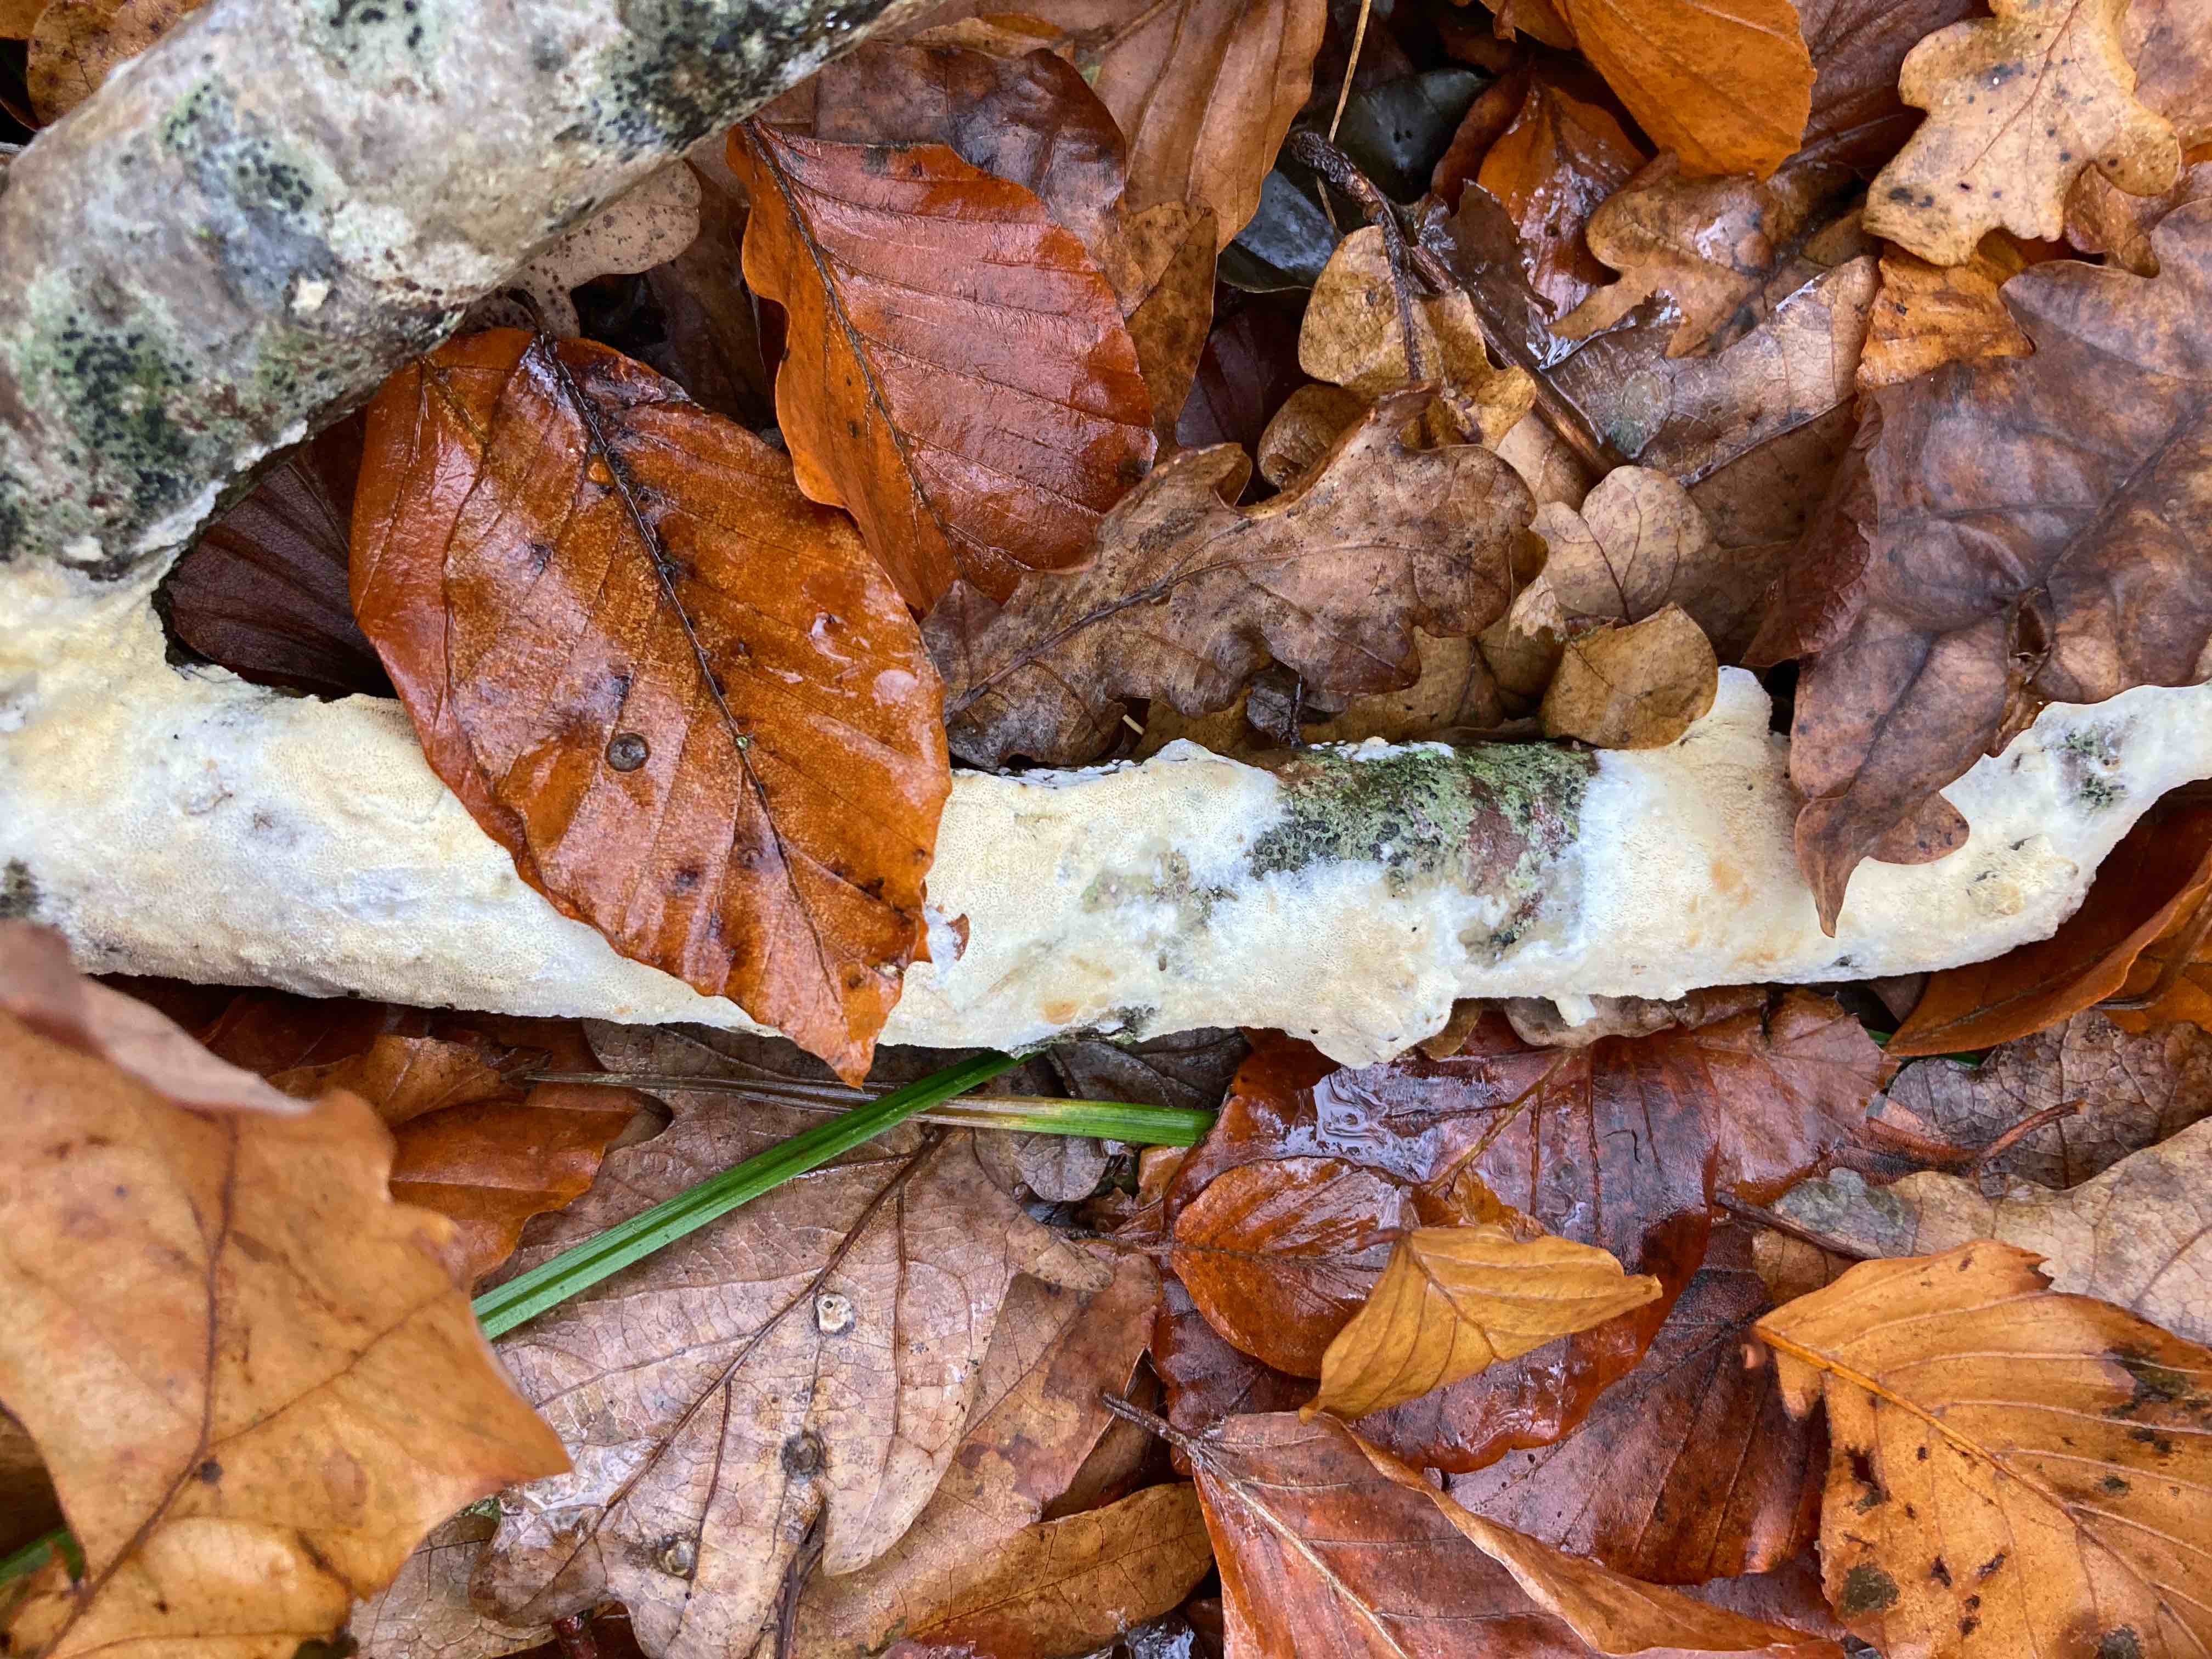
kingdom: Fungi
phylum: Basidiomycota
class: Agaricomycetes
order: Hymenochaetales
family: Schizoporaceae
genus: Xylodon
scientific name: Xylodon
